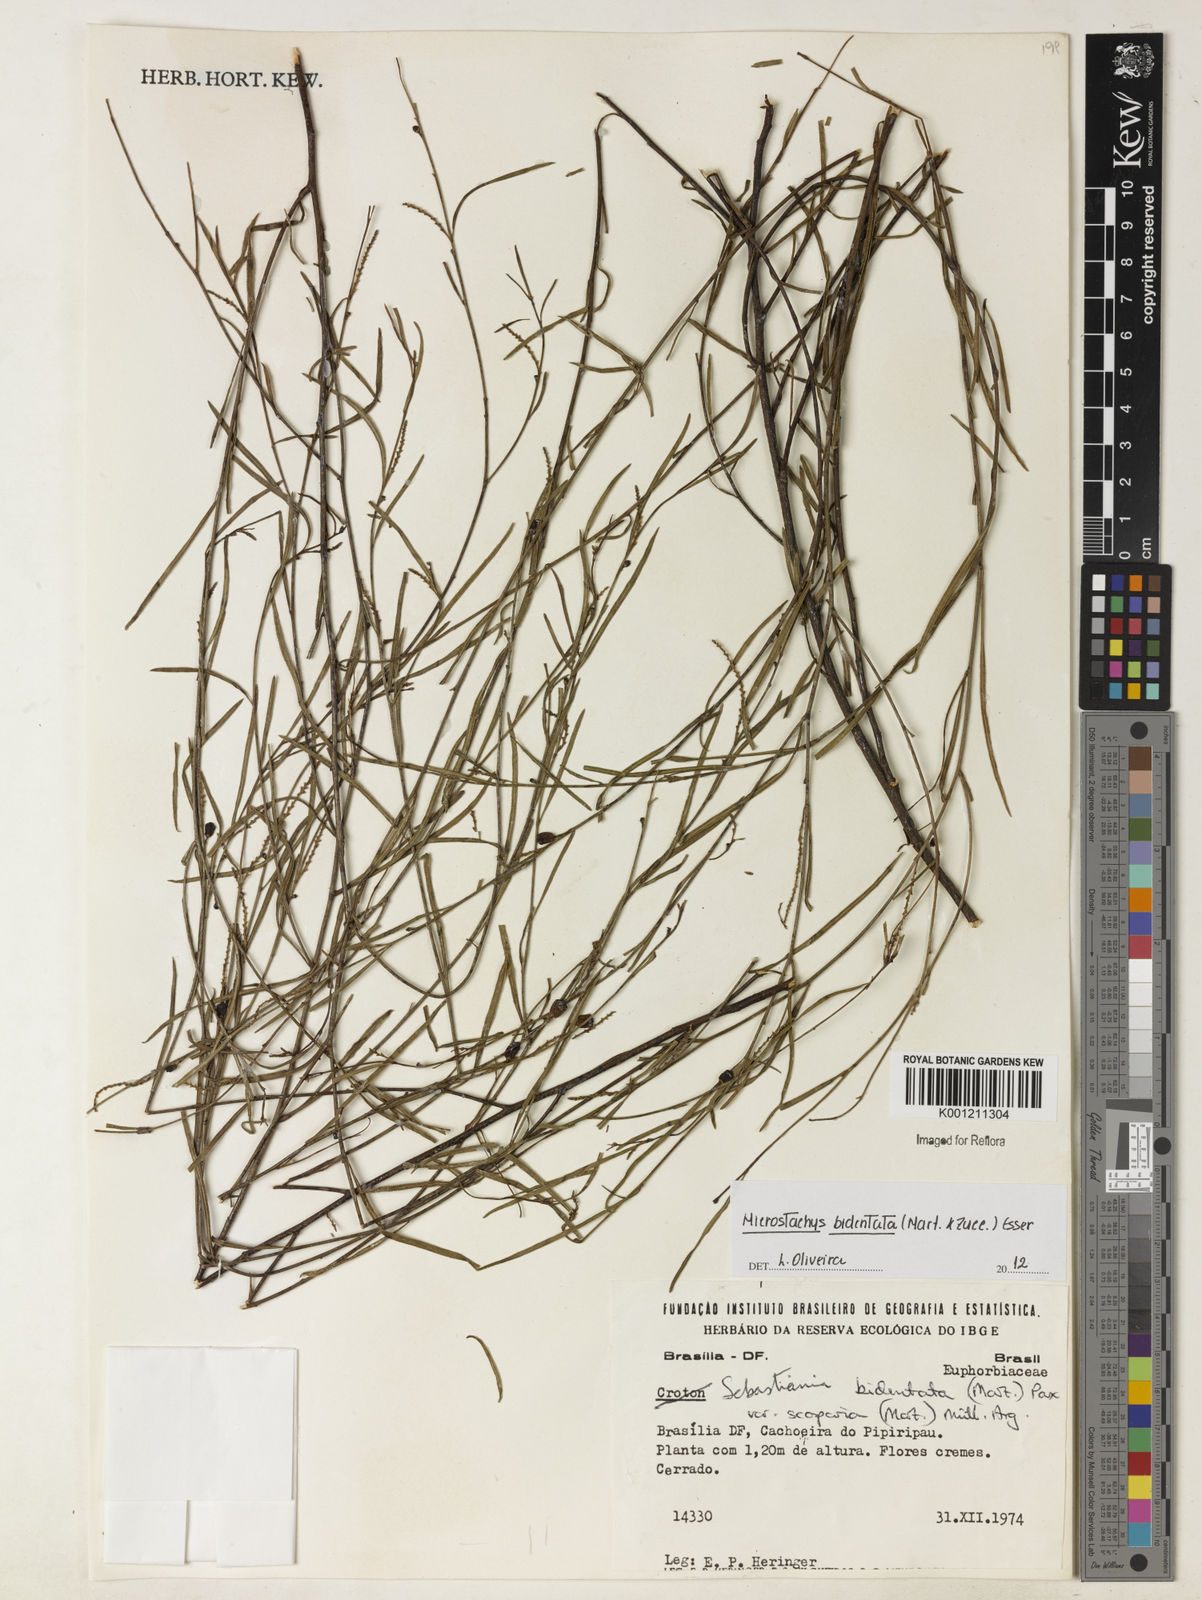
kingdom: Plantae
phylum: Tracheophyta
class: Magnoliopsida
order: Malpighiales
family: Euphorbiaceae
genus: Microstachys
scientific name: Microstachys bidentata
